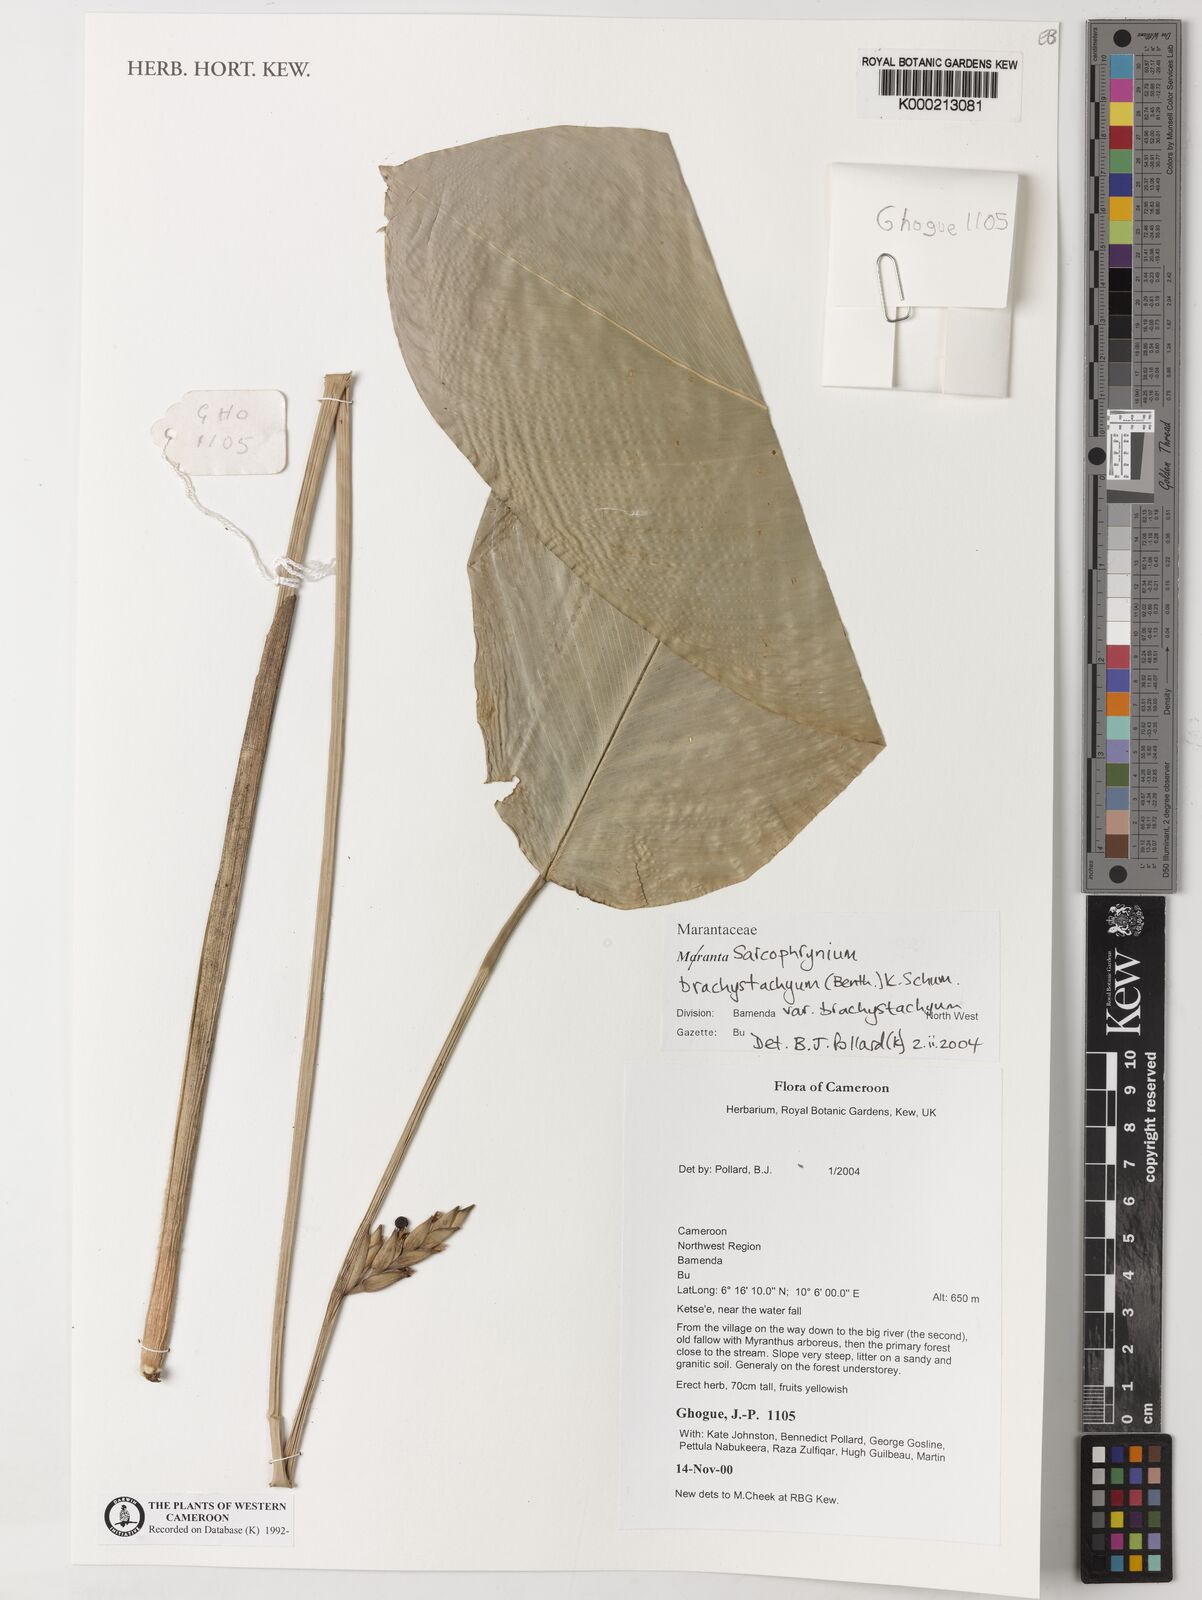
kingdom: Plantae
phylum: Tracheophyta
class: Liliopsida
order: Zingiberales
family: Marantaceae
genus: Sarcophrynium
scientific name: Sarcophrynium
